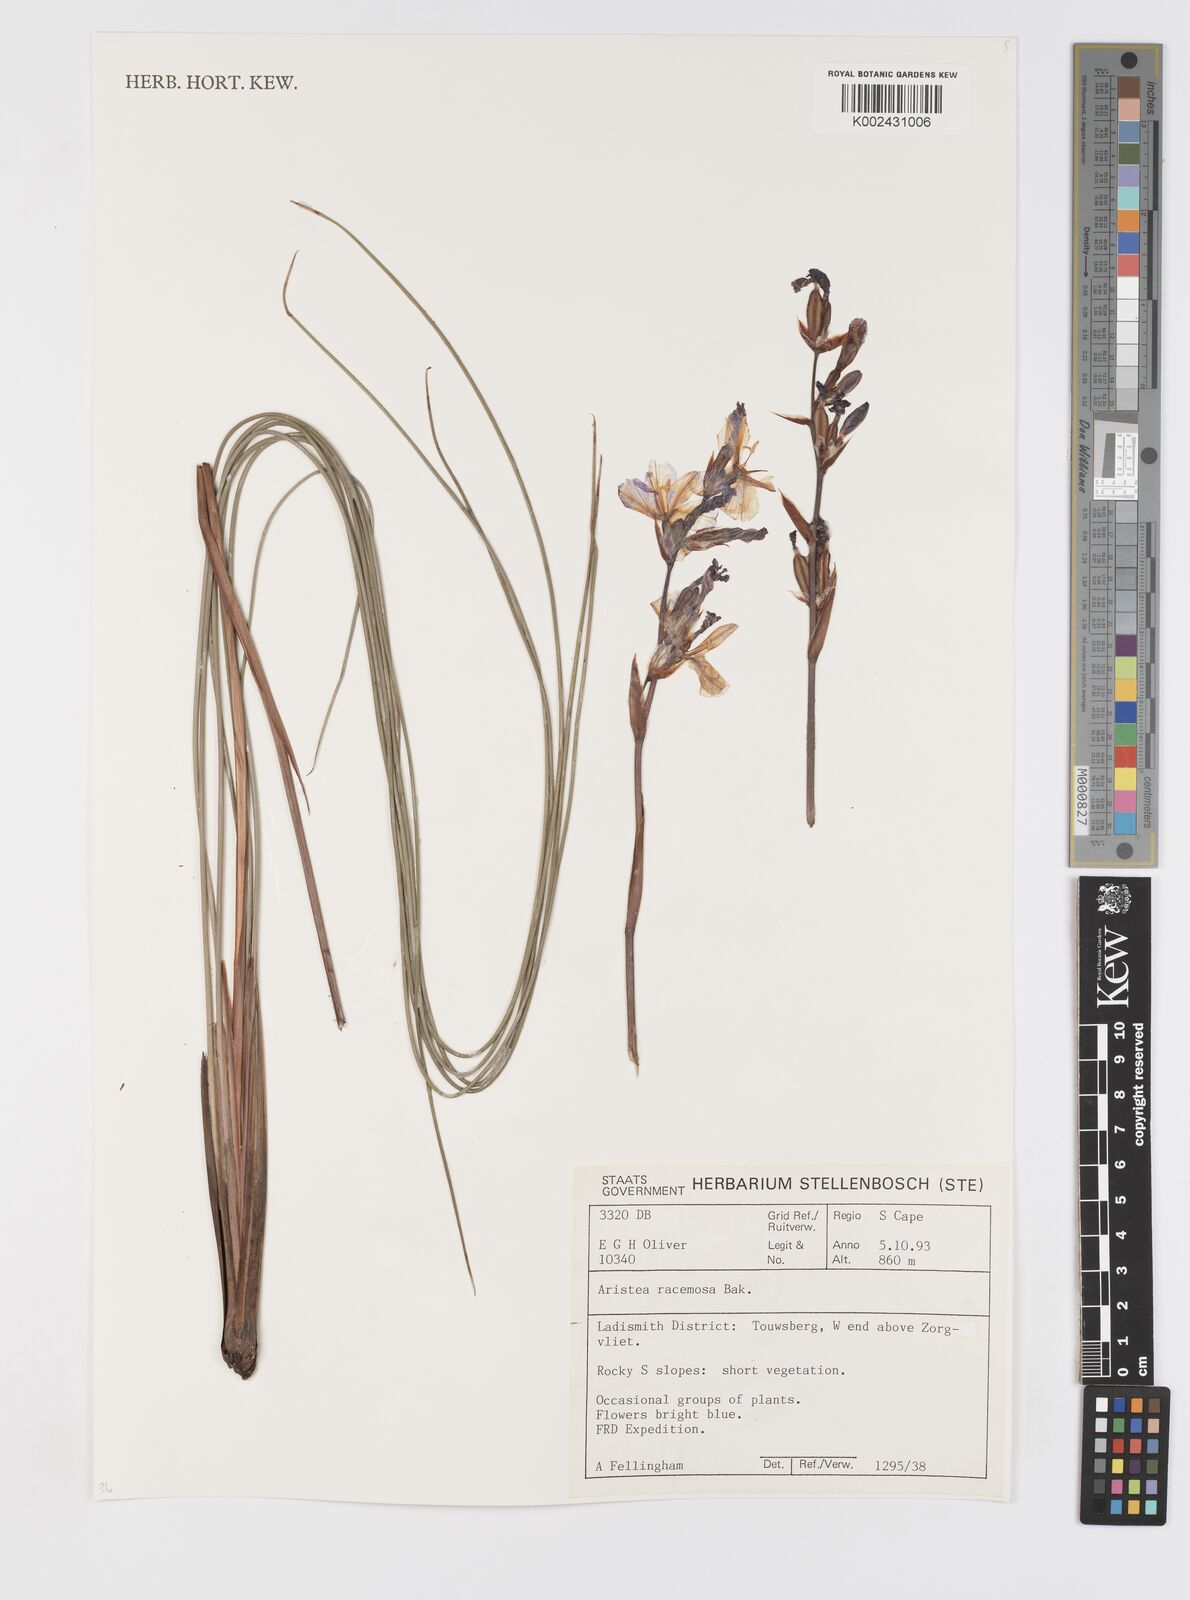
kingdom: Plantae
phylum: Tracheophyta
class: Liliopsida
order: Asparagales
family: Iridaceae
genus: Aristea
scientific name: Aristea racemosa
